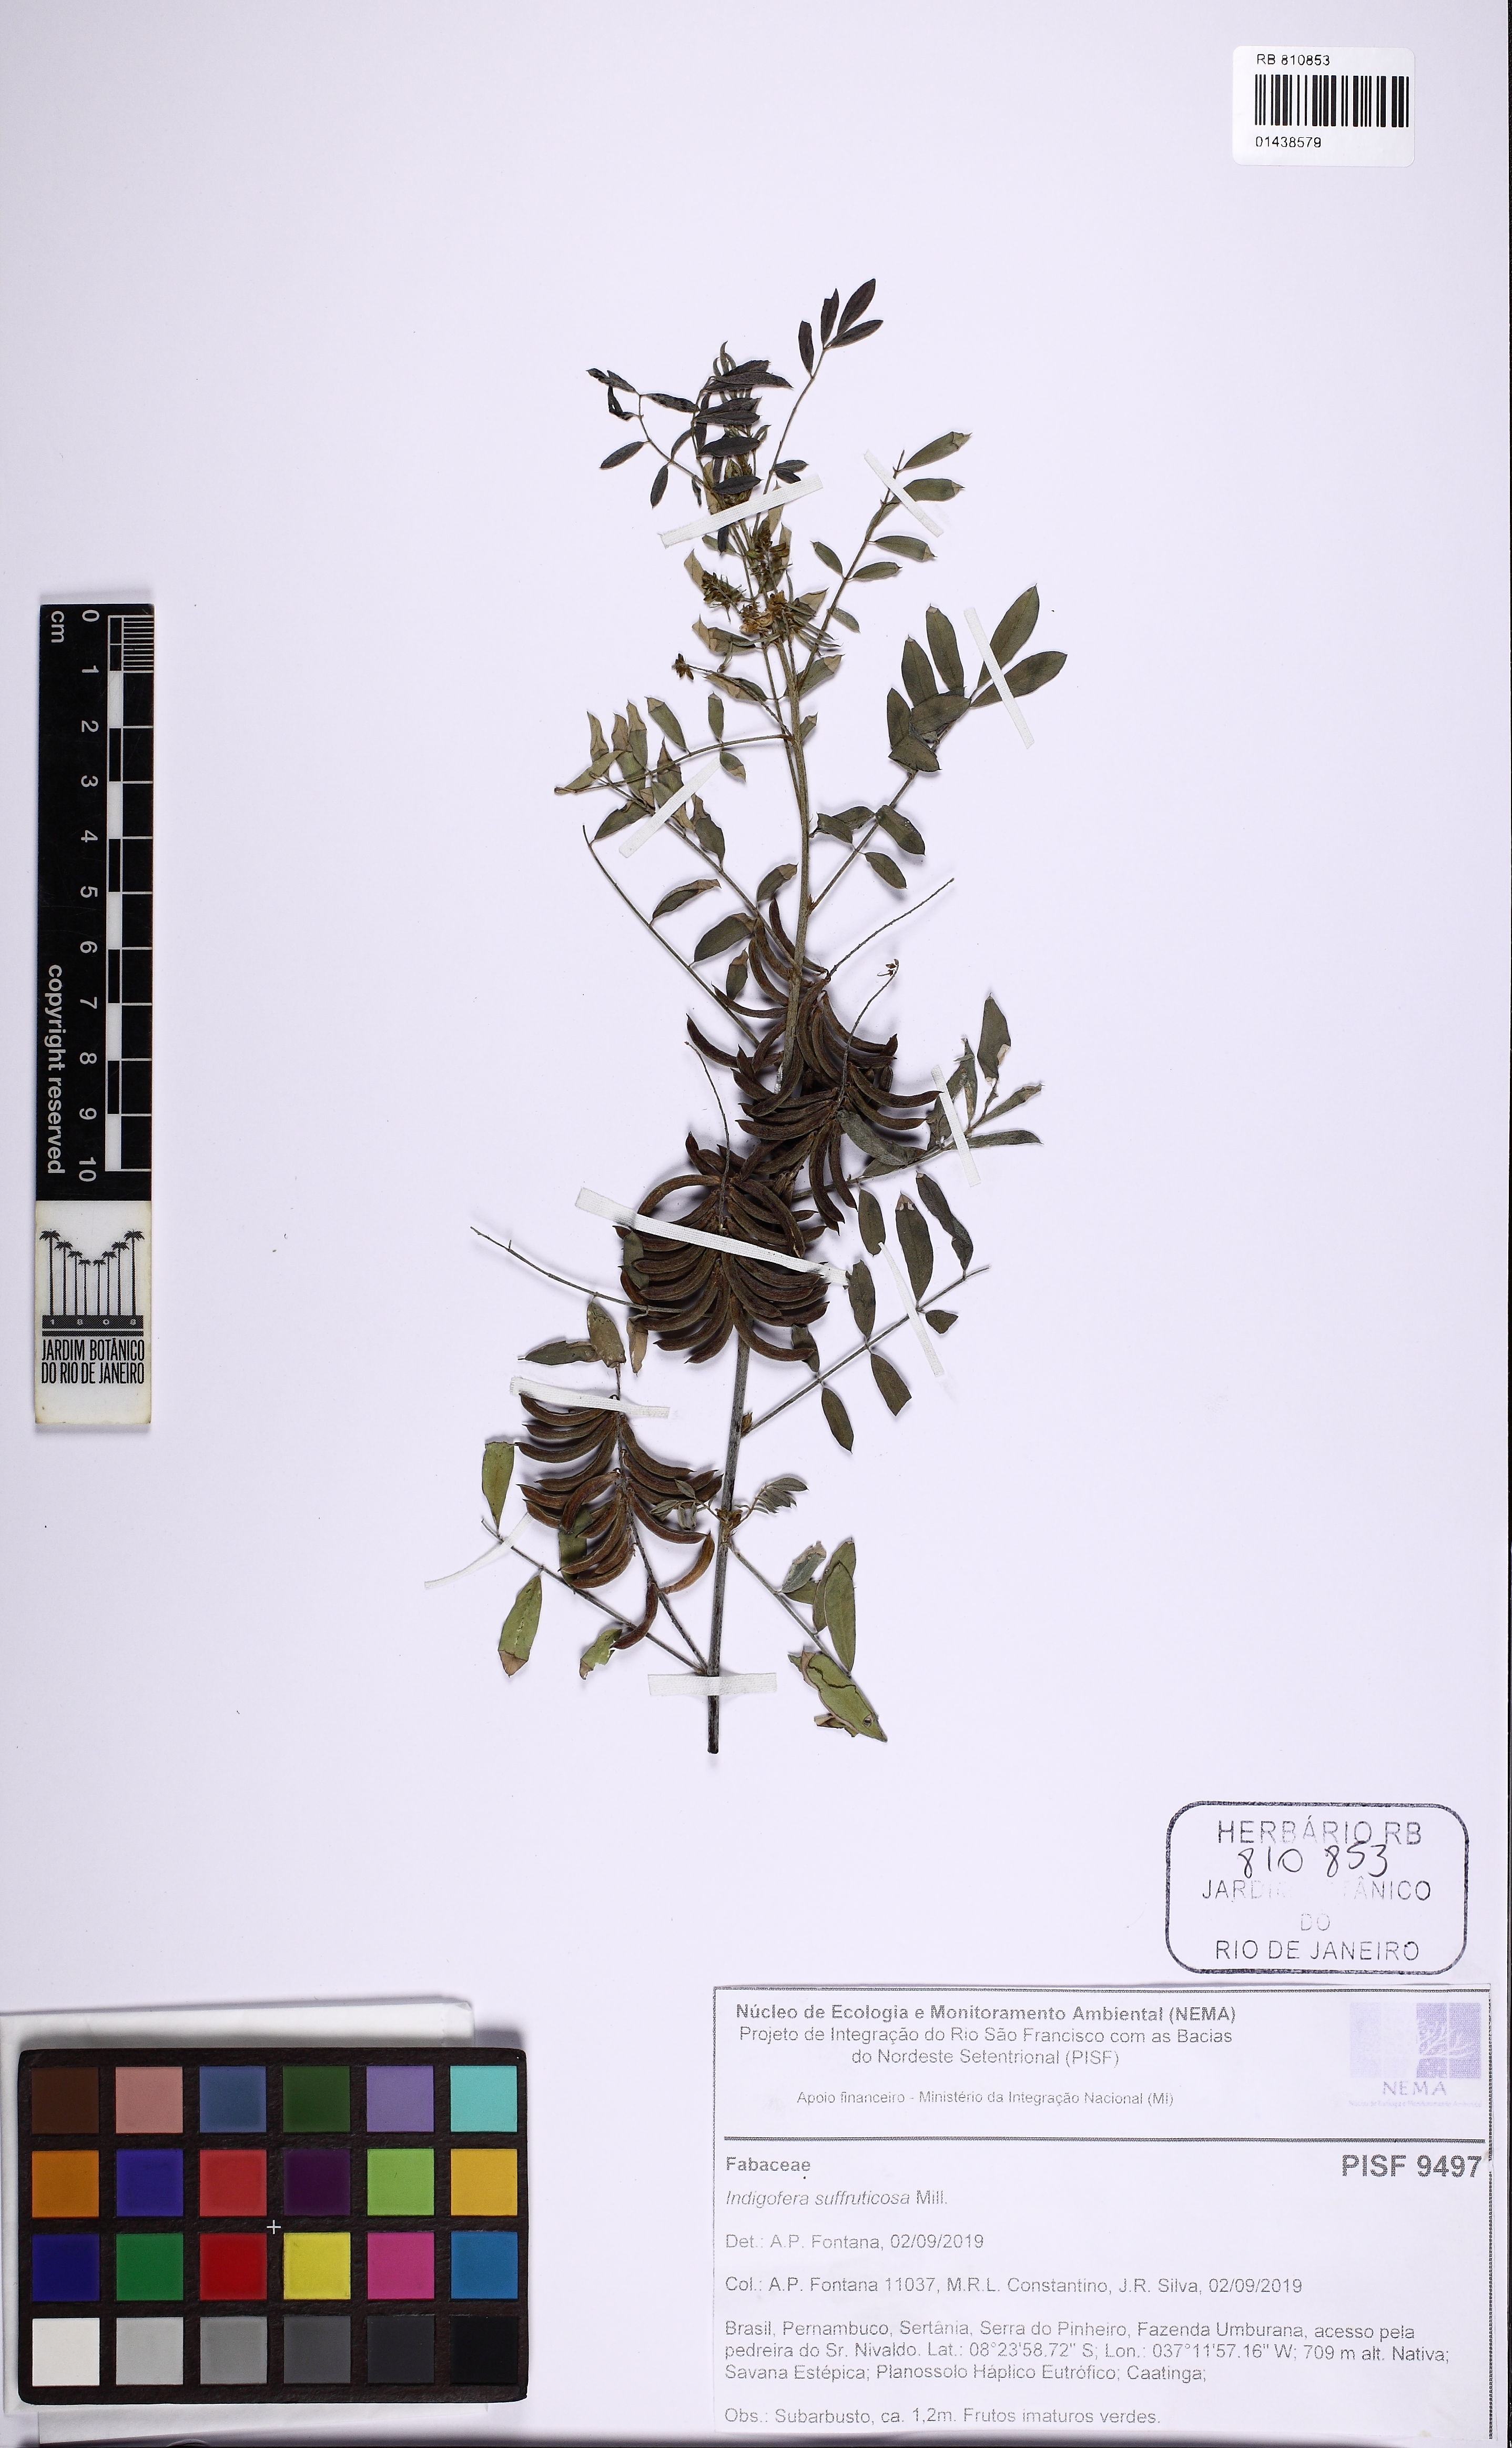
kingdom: Plantae
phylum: Tracheophyta
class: Magnoliopsida
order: Fabales
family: Fabaceae
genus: Indigofera
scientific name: Indigofera suffruticosa
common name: Anil de pasto
